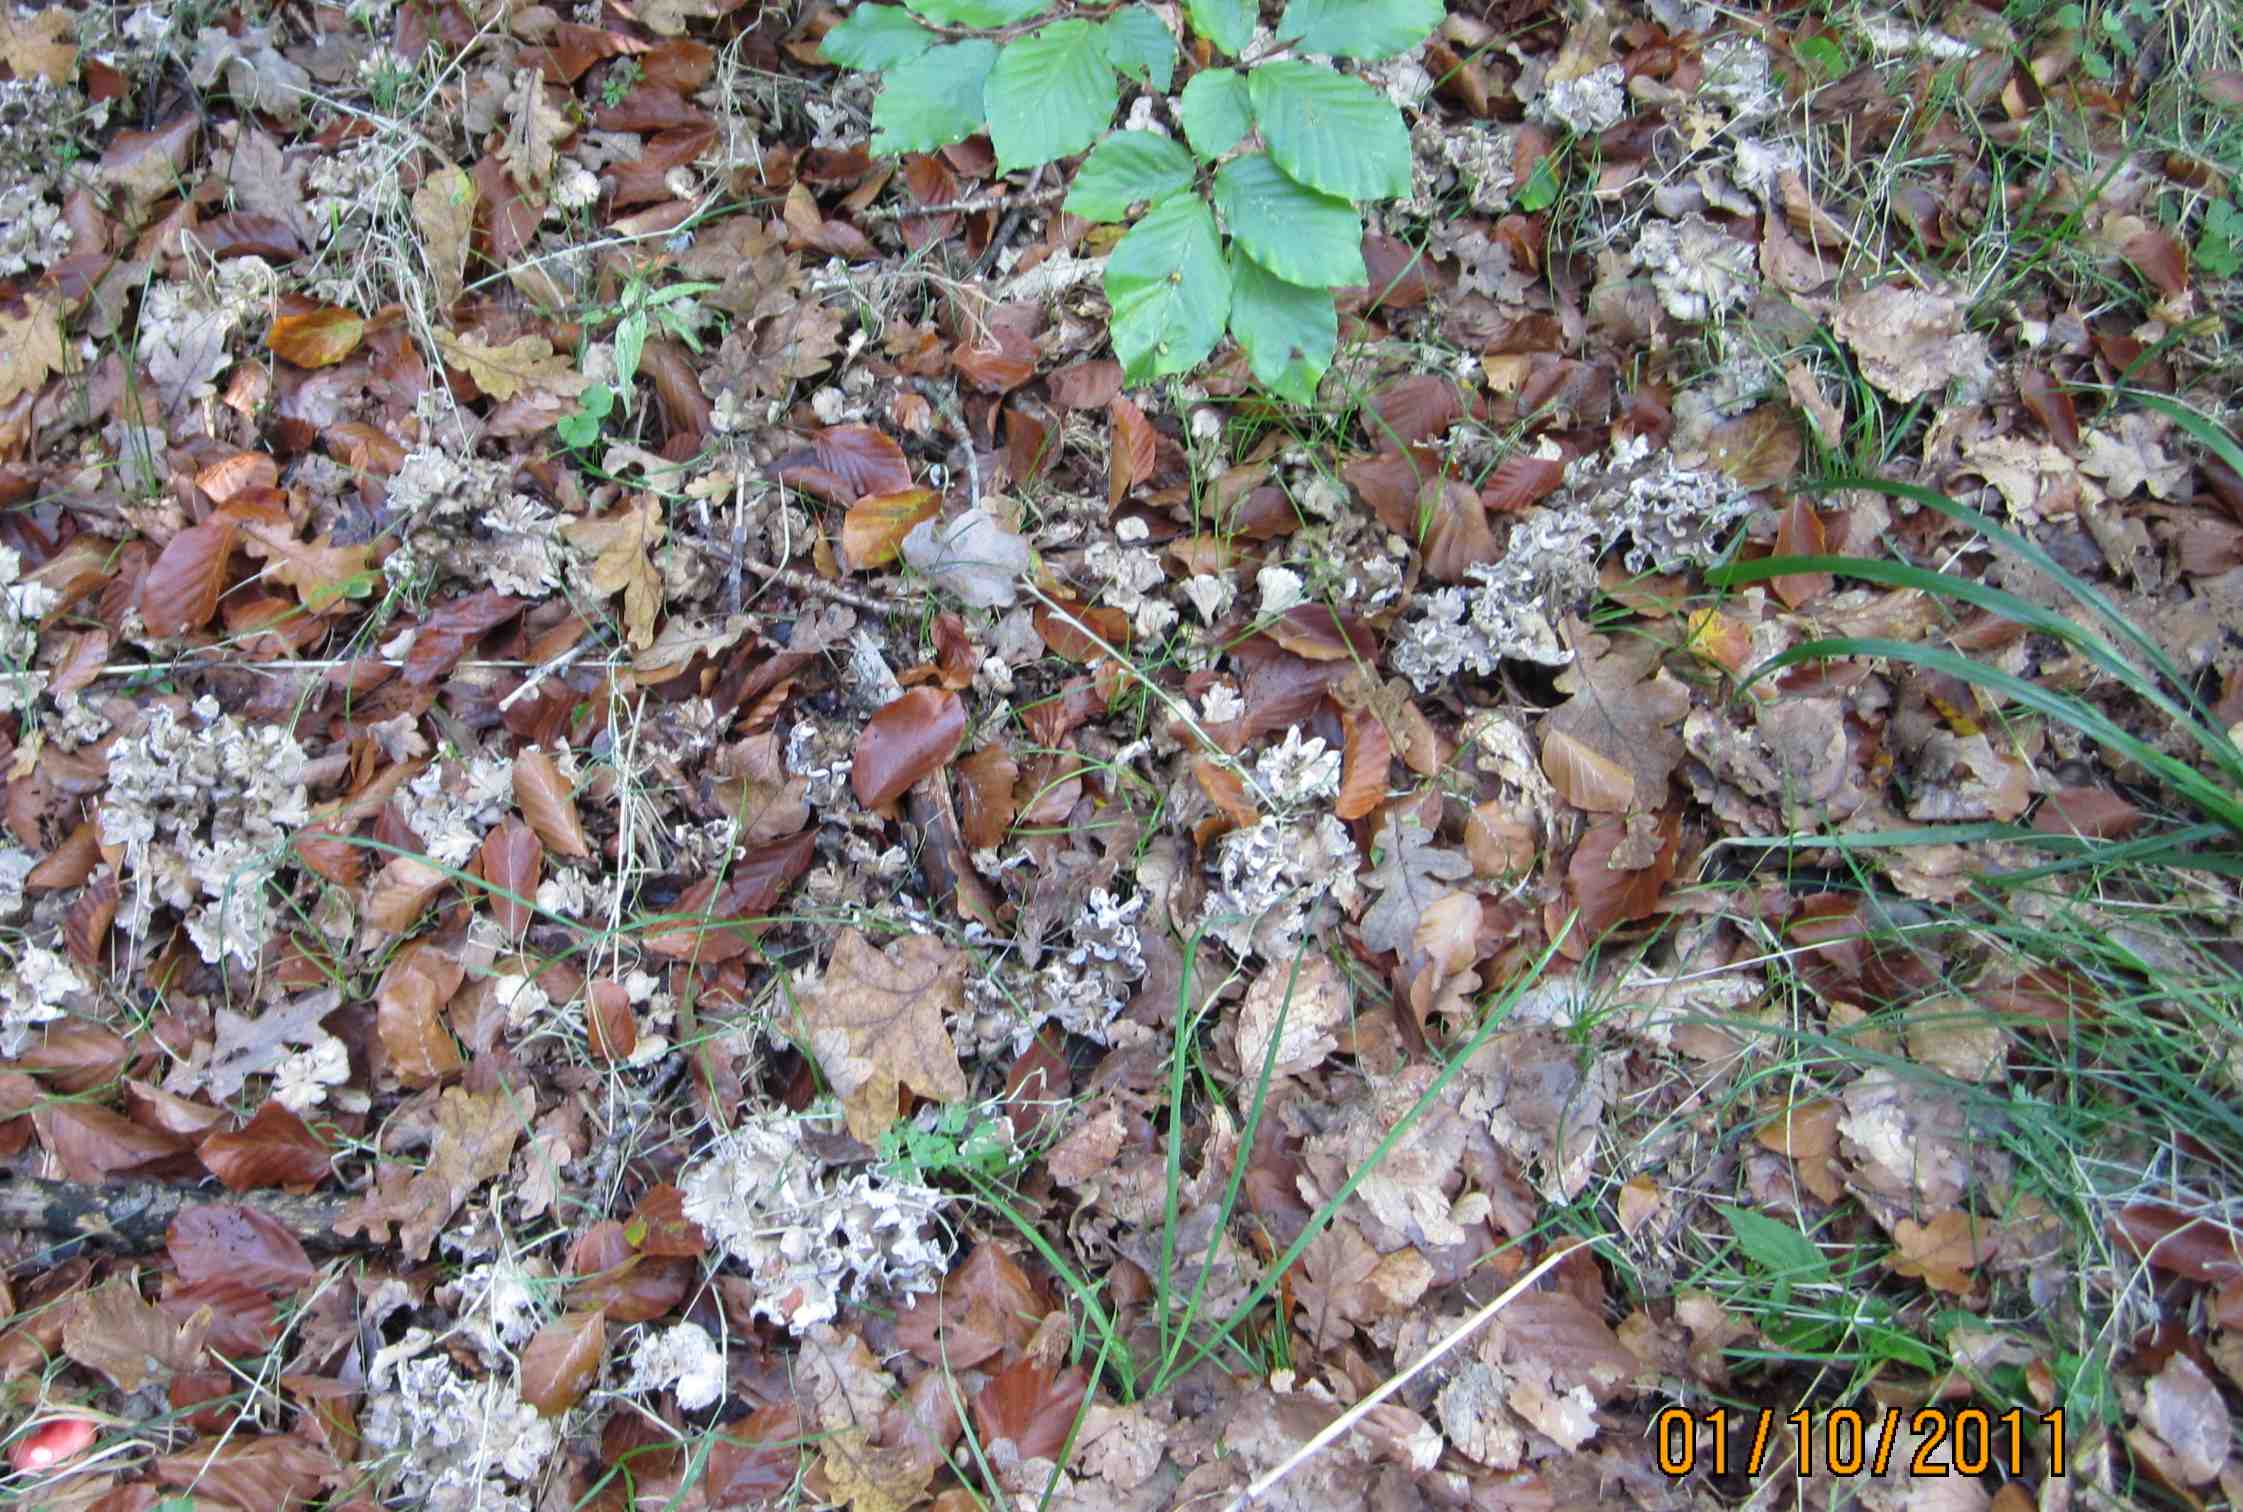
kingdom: Fungi
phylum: Basidiomycota
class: Agaricomycetes
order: Cantharellales
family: Hydnaceae
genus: Craterellus
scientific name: Craterellus undulatus
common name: liden kantarel
